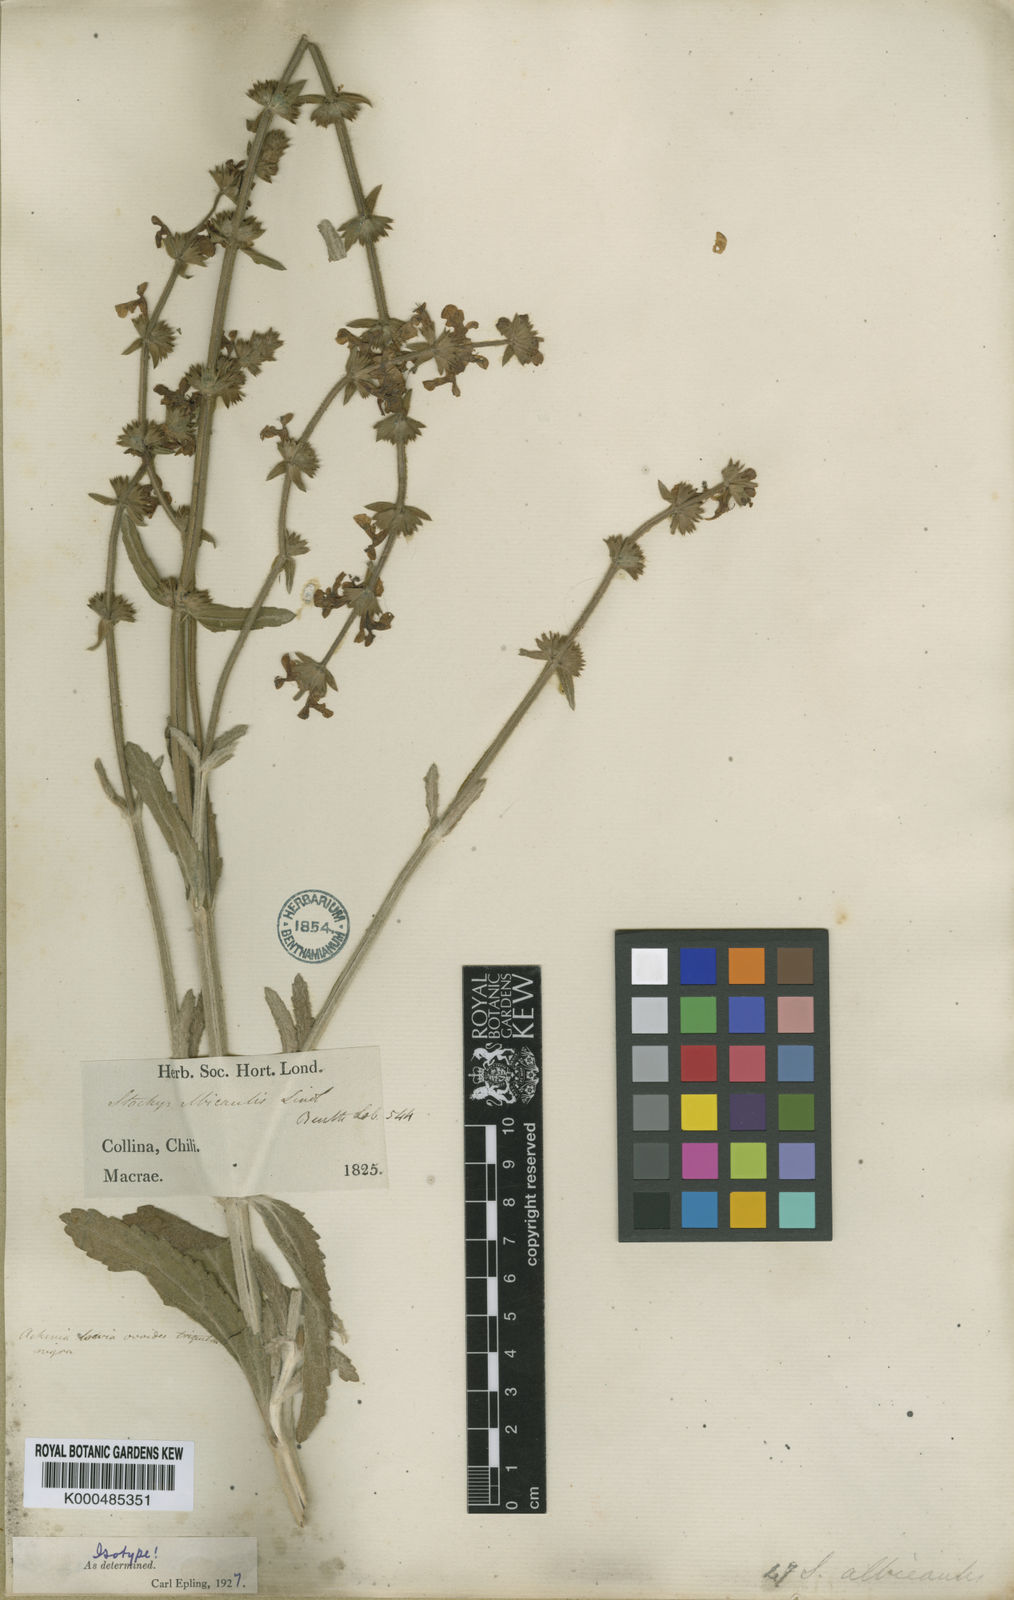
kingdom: Plantae
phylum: Tracheophyta
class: Magnoliopsida
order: Lamiales
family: Lamiaceae
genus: Stachys
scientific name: Stachys albicaulis
